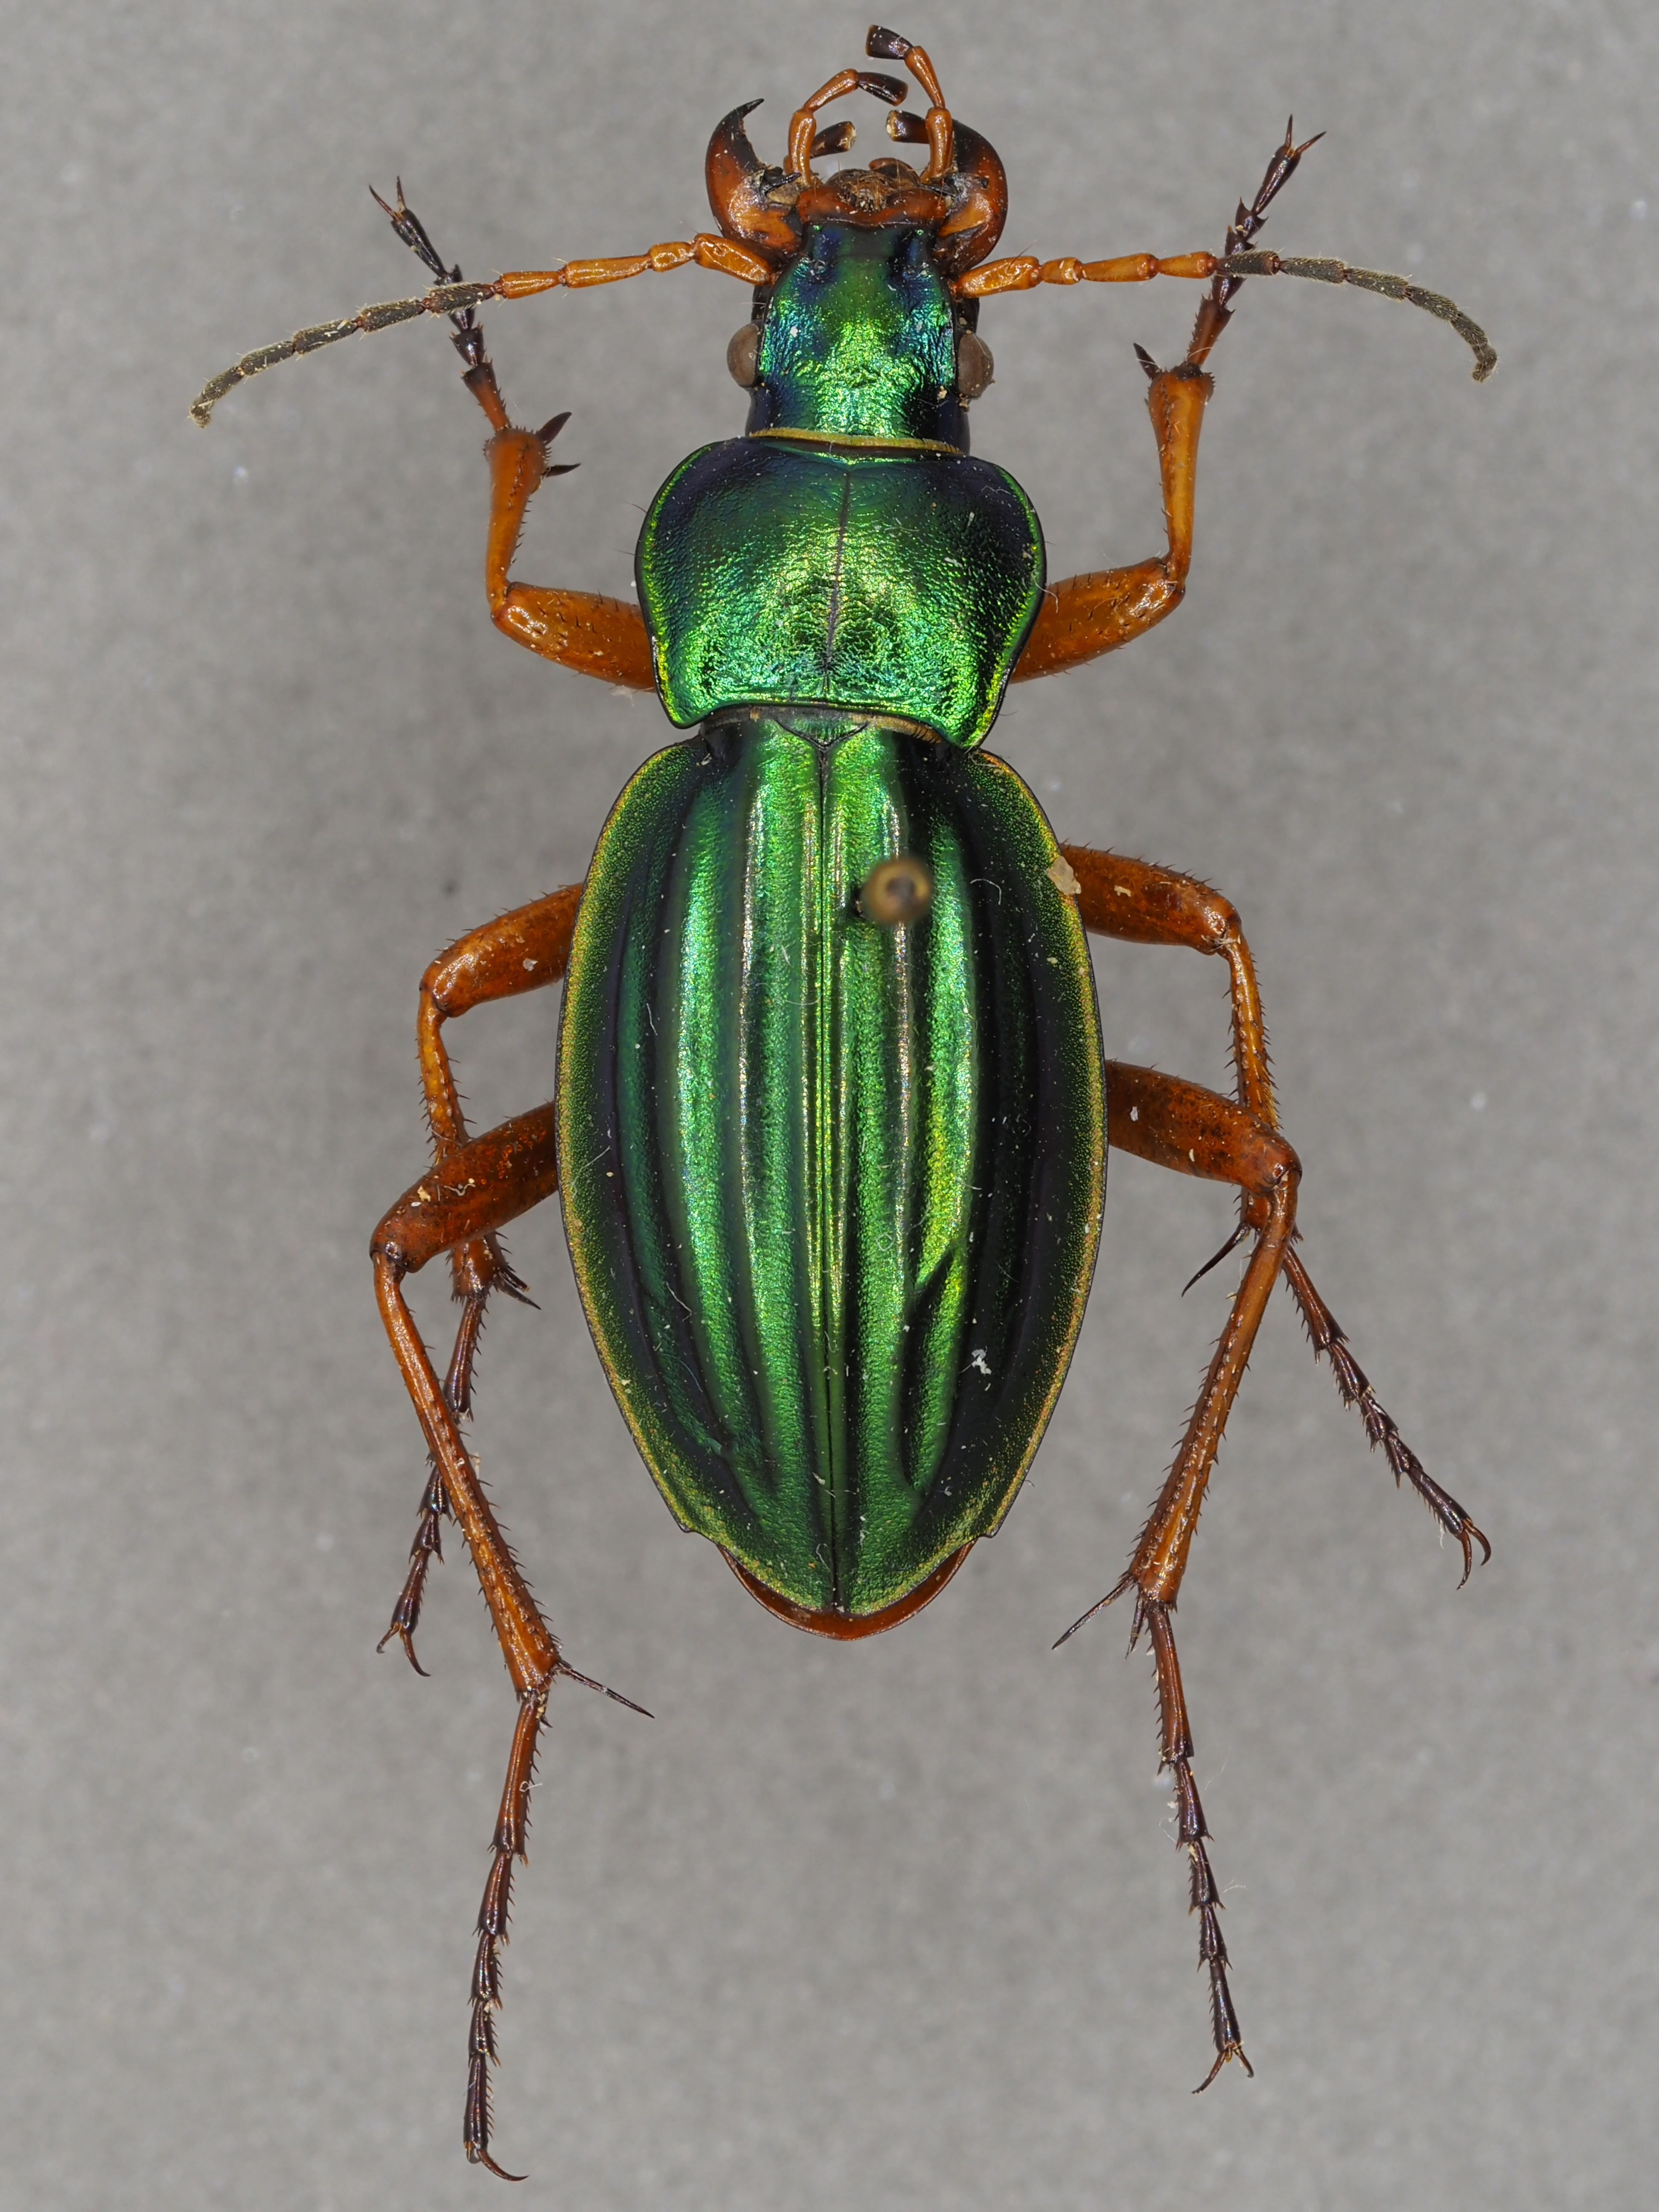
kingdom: Animalia
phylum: Arthropoda
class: Insecta
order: Coleoptera
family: Carabidae
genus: Carabus
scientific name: Carabus auratus
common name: Golden ground beetle
